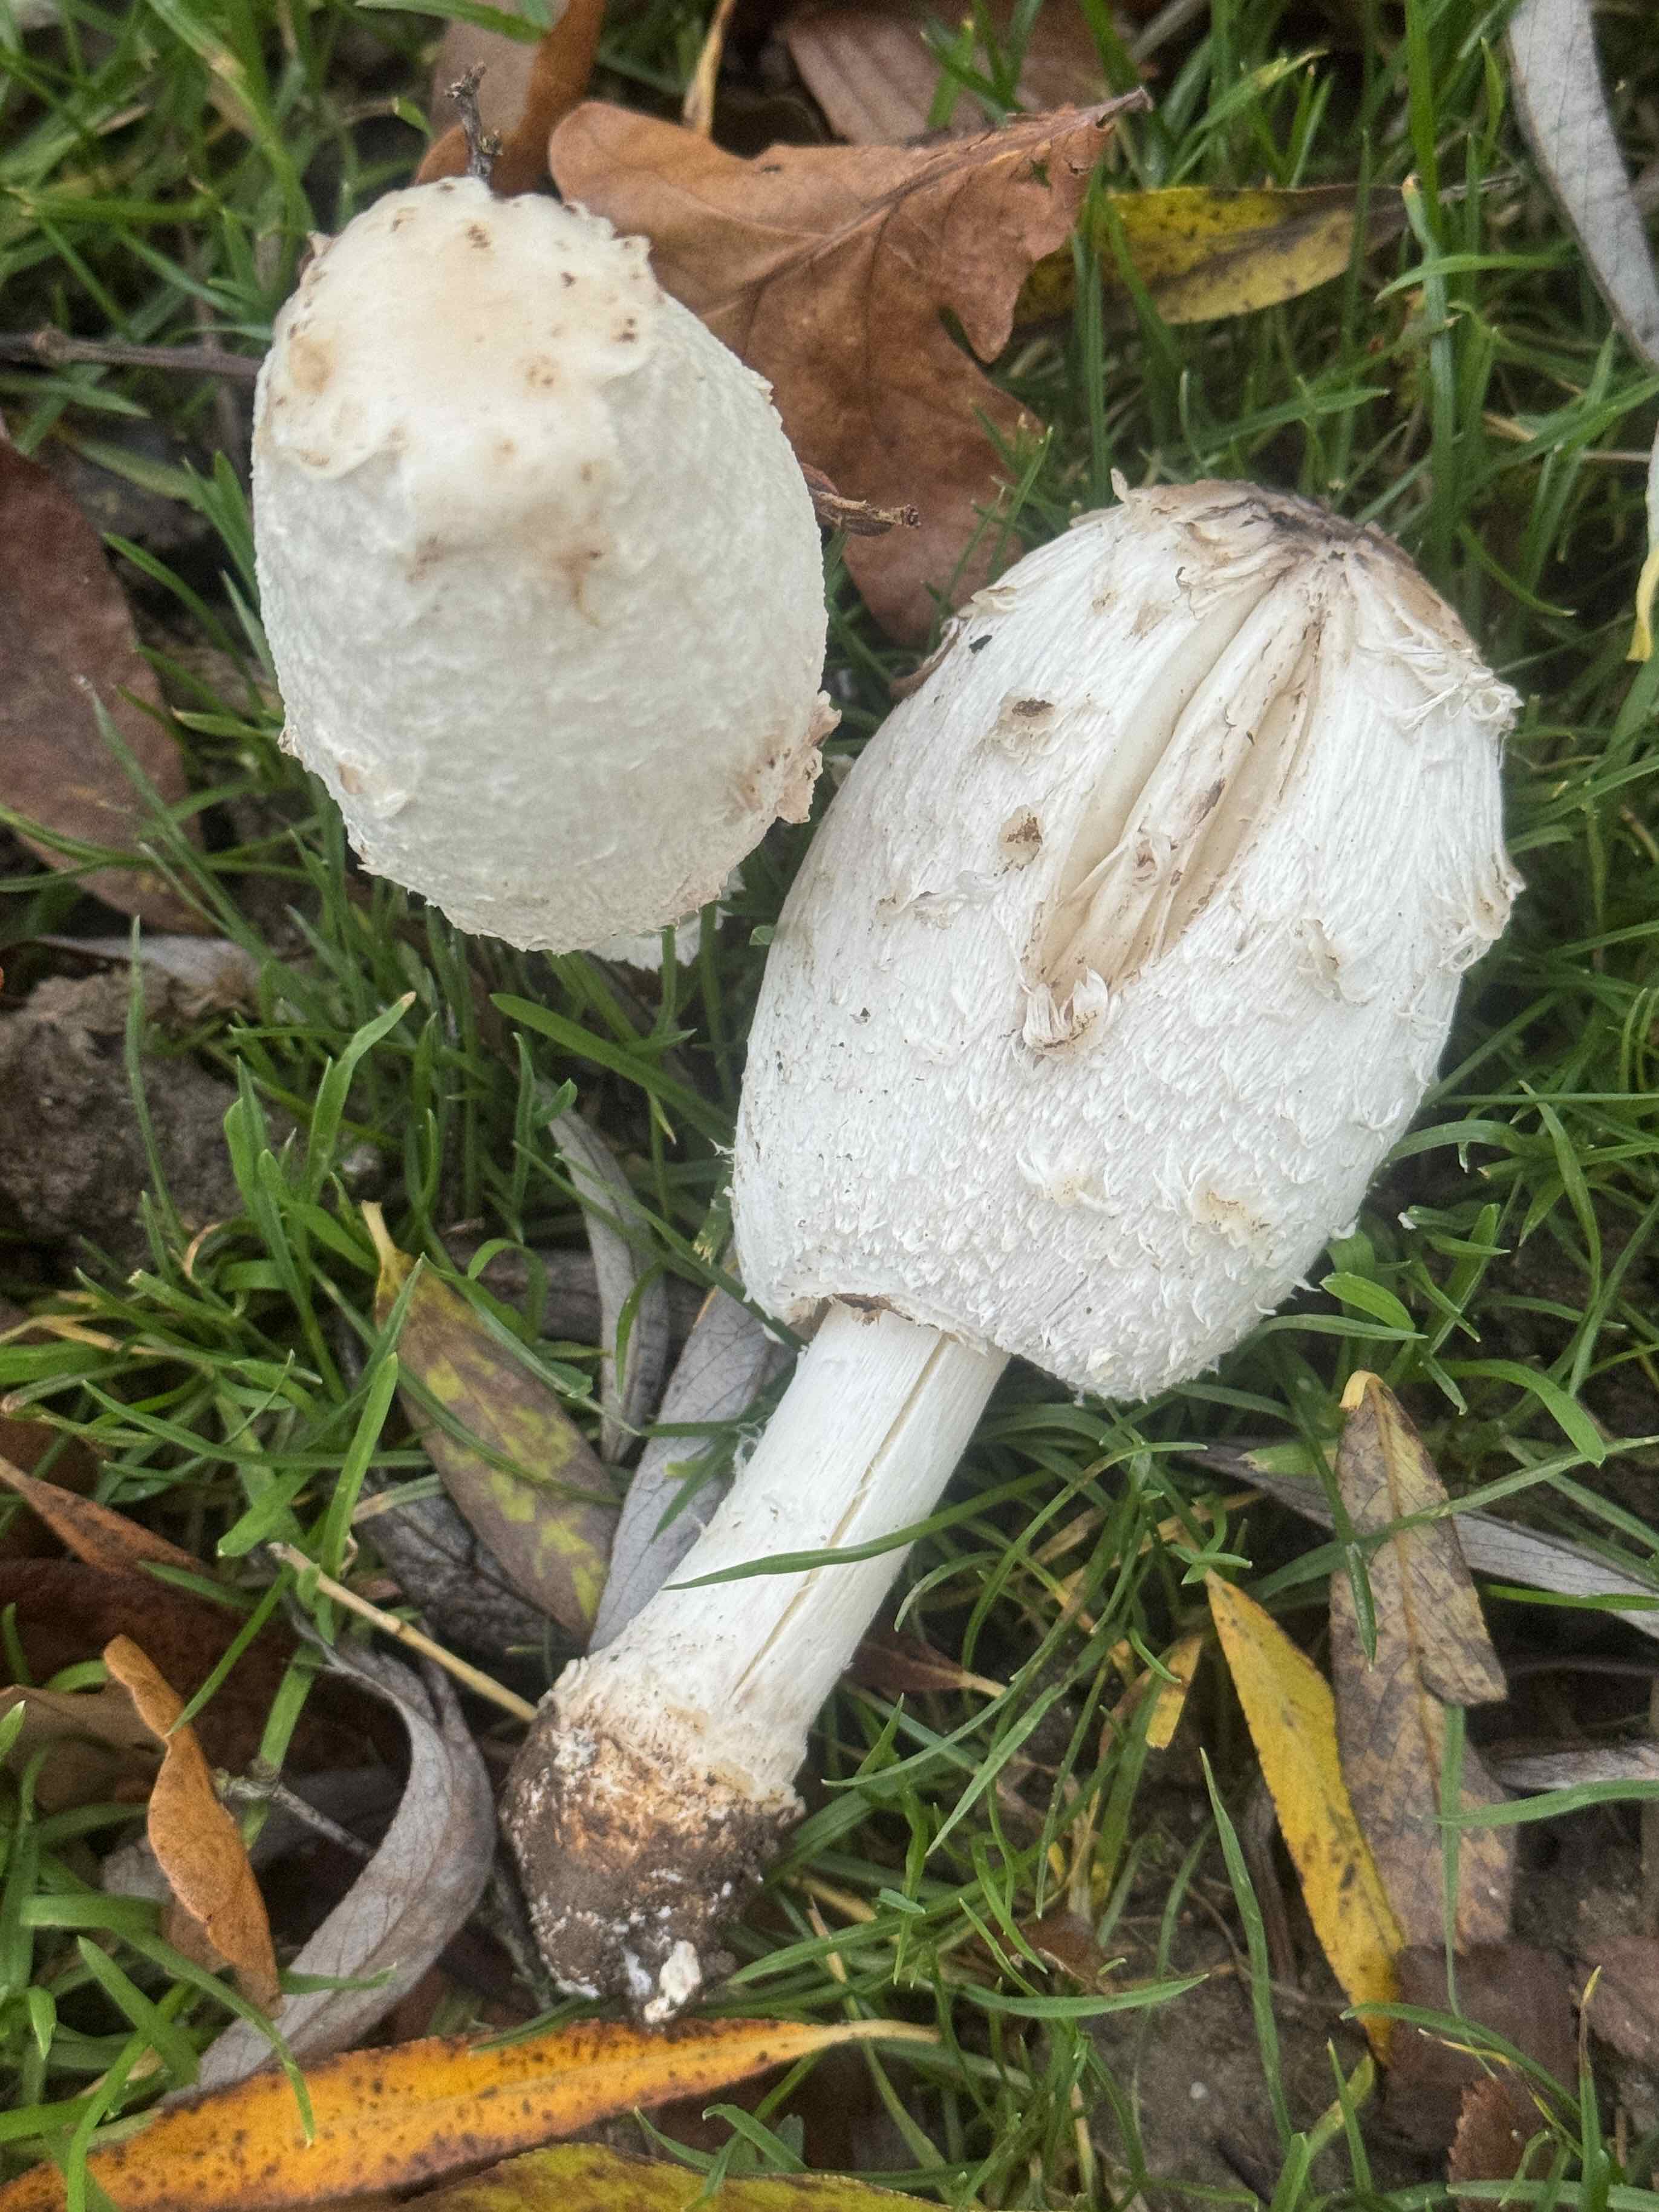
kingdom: Fungi
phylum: Basidiomycota
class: Agaricomycetes
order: Agaricales
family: Agaricaceae
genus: Coprinus
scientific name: Coprinus comatus
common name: stor parykhat
